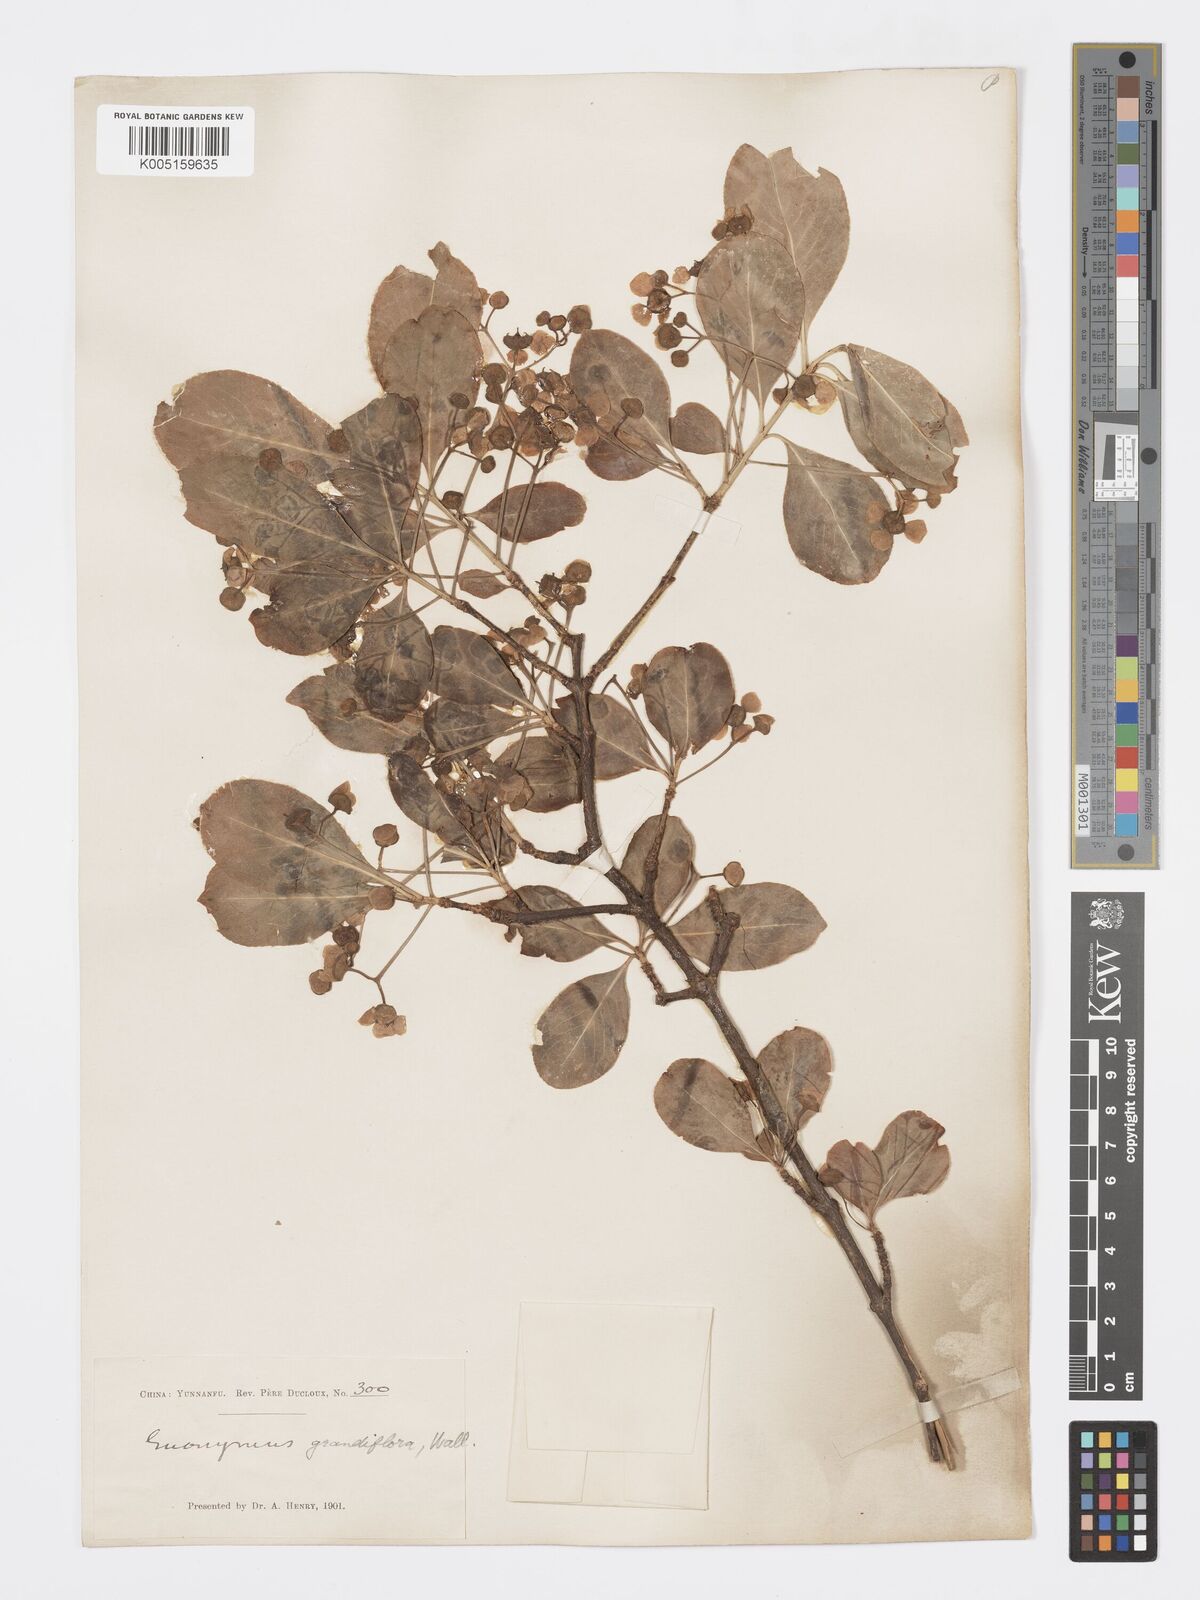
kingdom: Plantae
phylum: Tracheophyta
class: Magnoliopsida
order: Celastrales
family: Celastraceae
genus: Euonymus
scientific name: Euonymus grandiflorus
